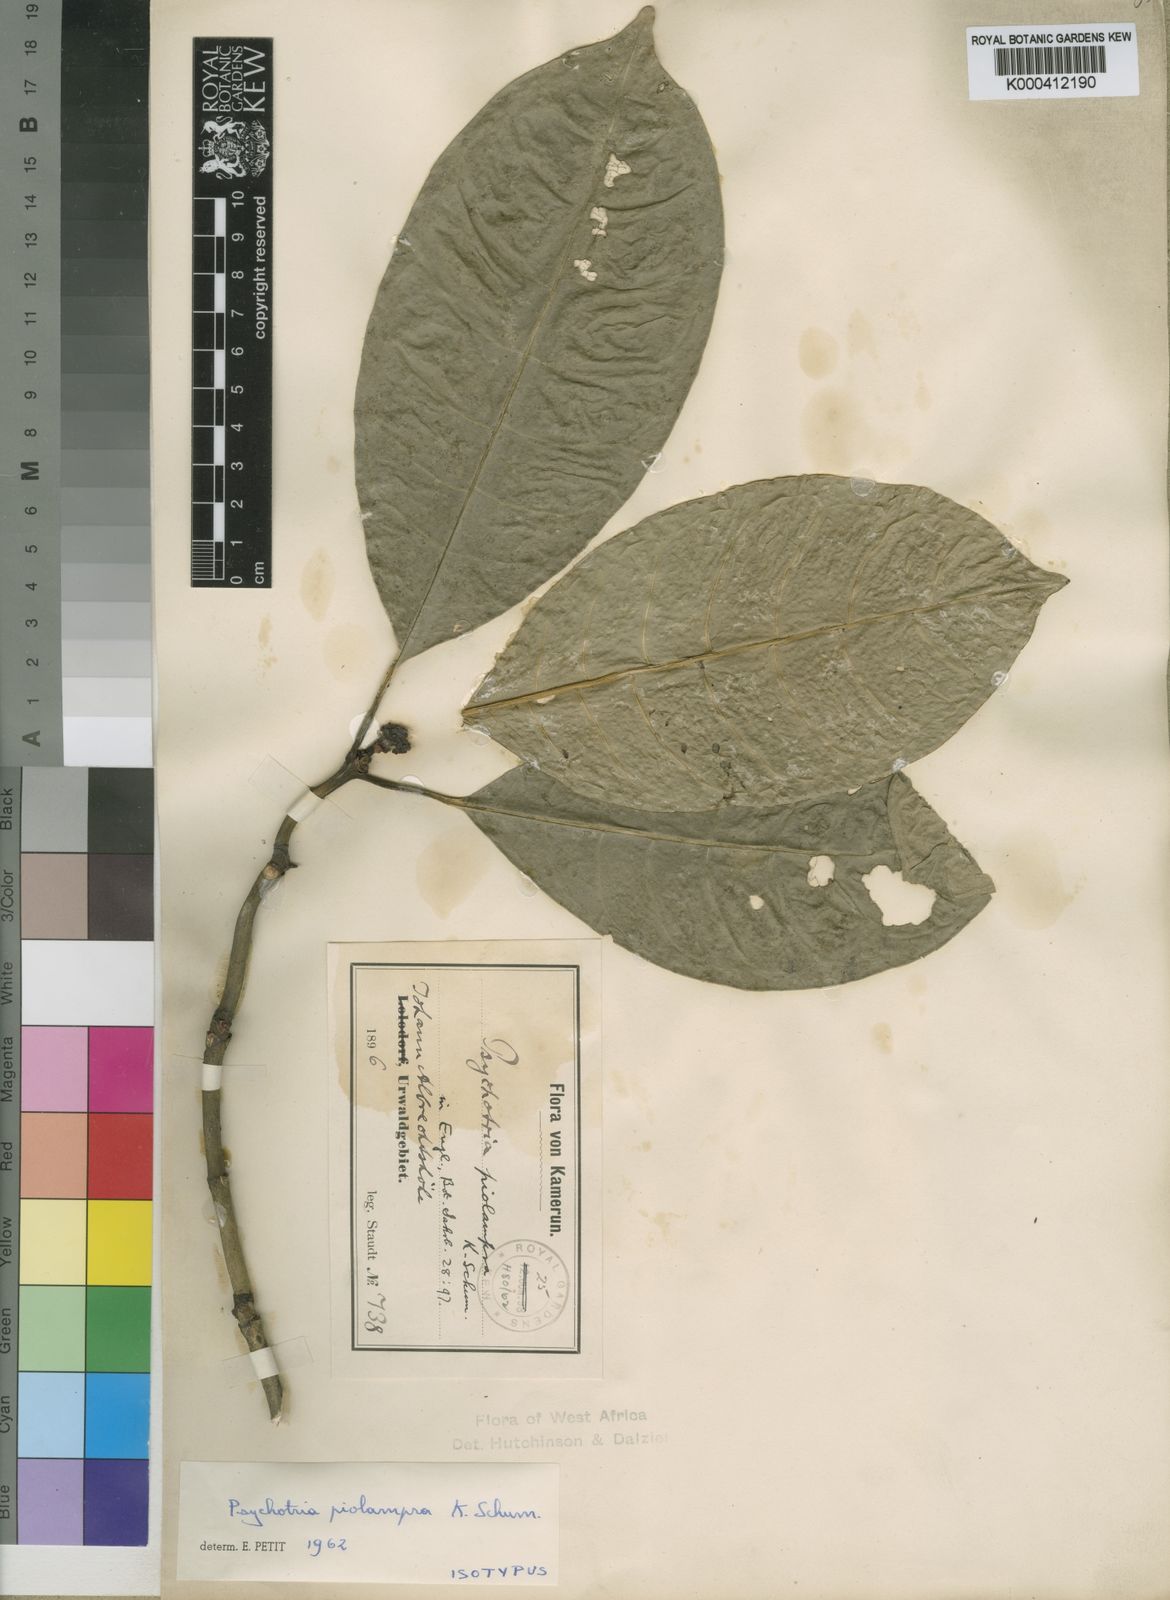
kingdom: Plantae
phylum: Tracheophyta
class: Magnoliopsida
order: Gentianales
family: Rubiaceae
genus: Psychotria
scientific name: Psychotria piolampra
